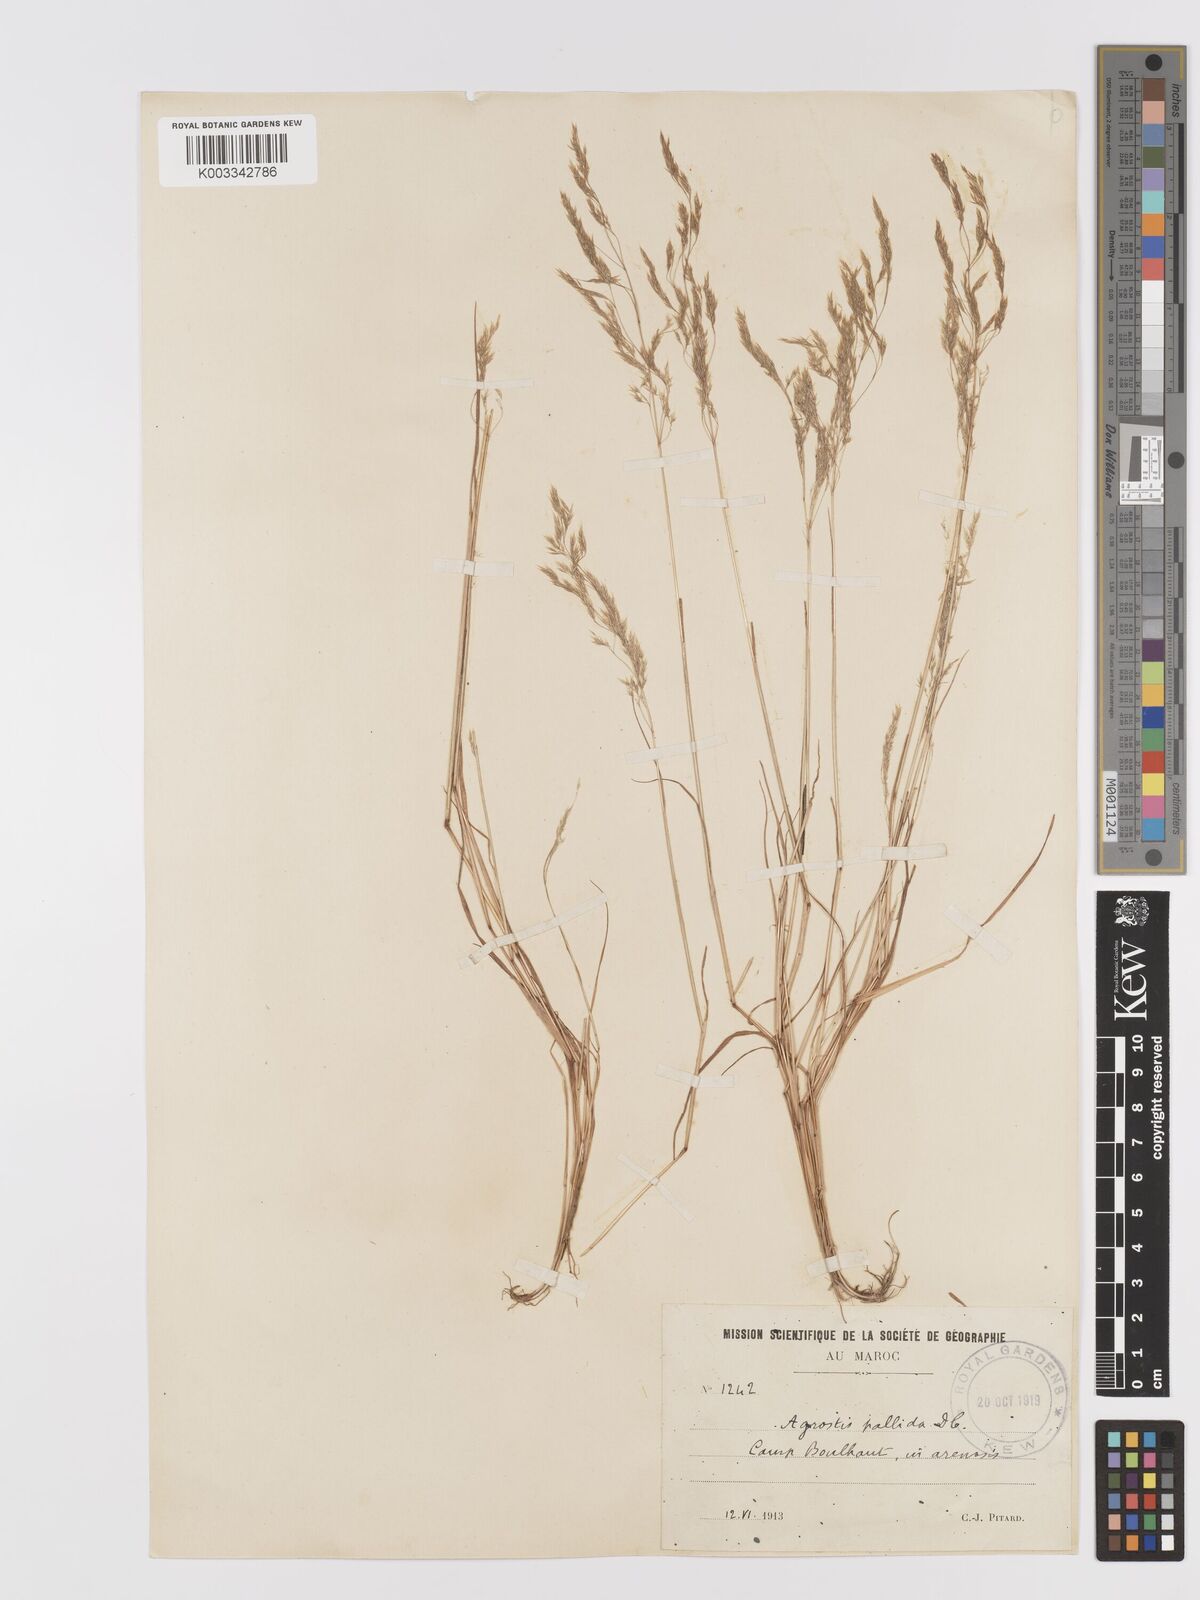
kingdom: Plantae
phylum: Tracheophyta
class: Liliopsida
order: Poales
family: Poaceae
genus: Agrostis
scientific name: Agrostis pourretii
